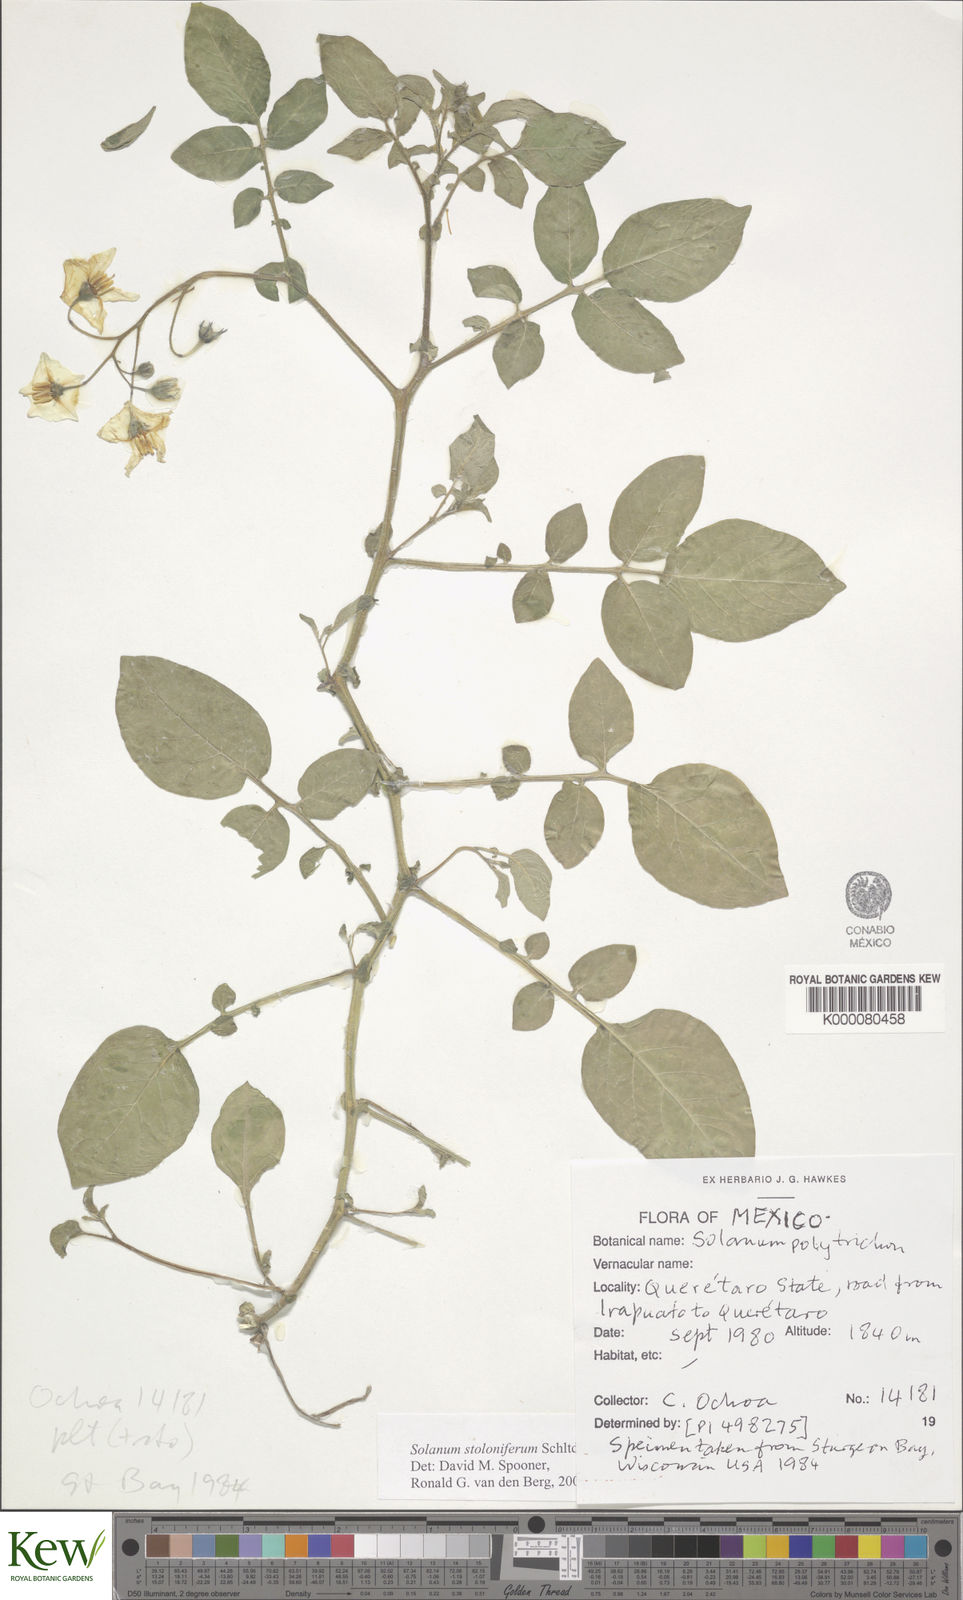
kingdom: Plantae
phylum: Tracheophyta
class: Magnoliopsida
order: Solanales
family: Solanaceae
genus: Solanum
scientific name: Solanum stoloniferum
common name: Fendler's nighshade
